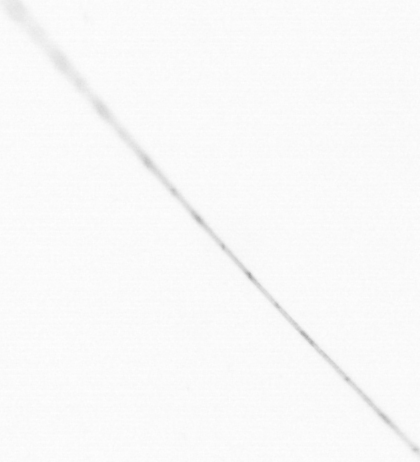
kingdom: Animalia
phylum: Chaetognatha
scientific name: Chaetognatha
